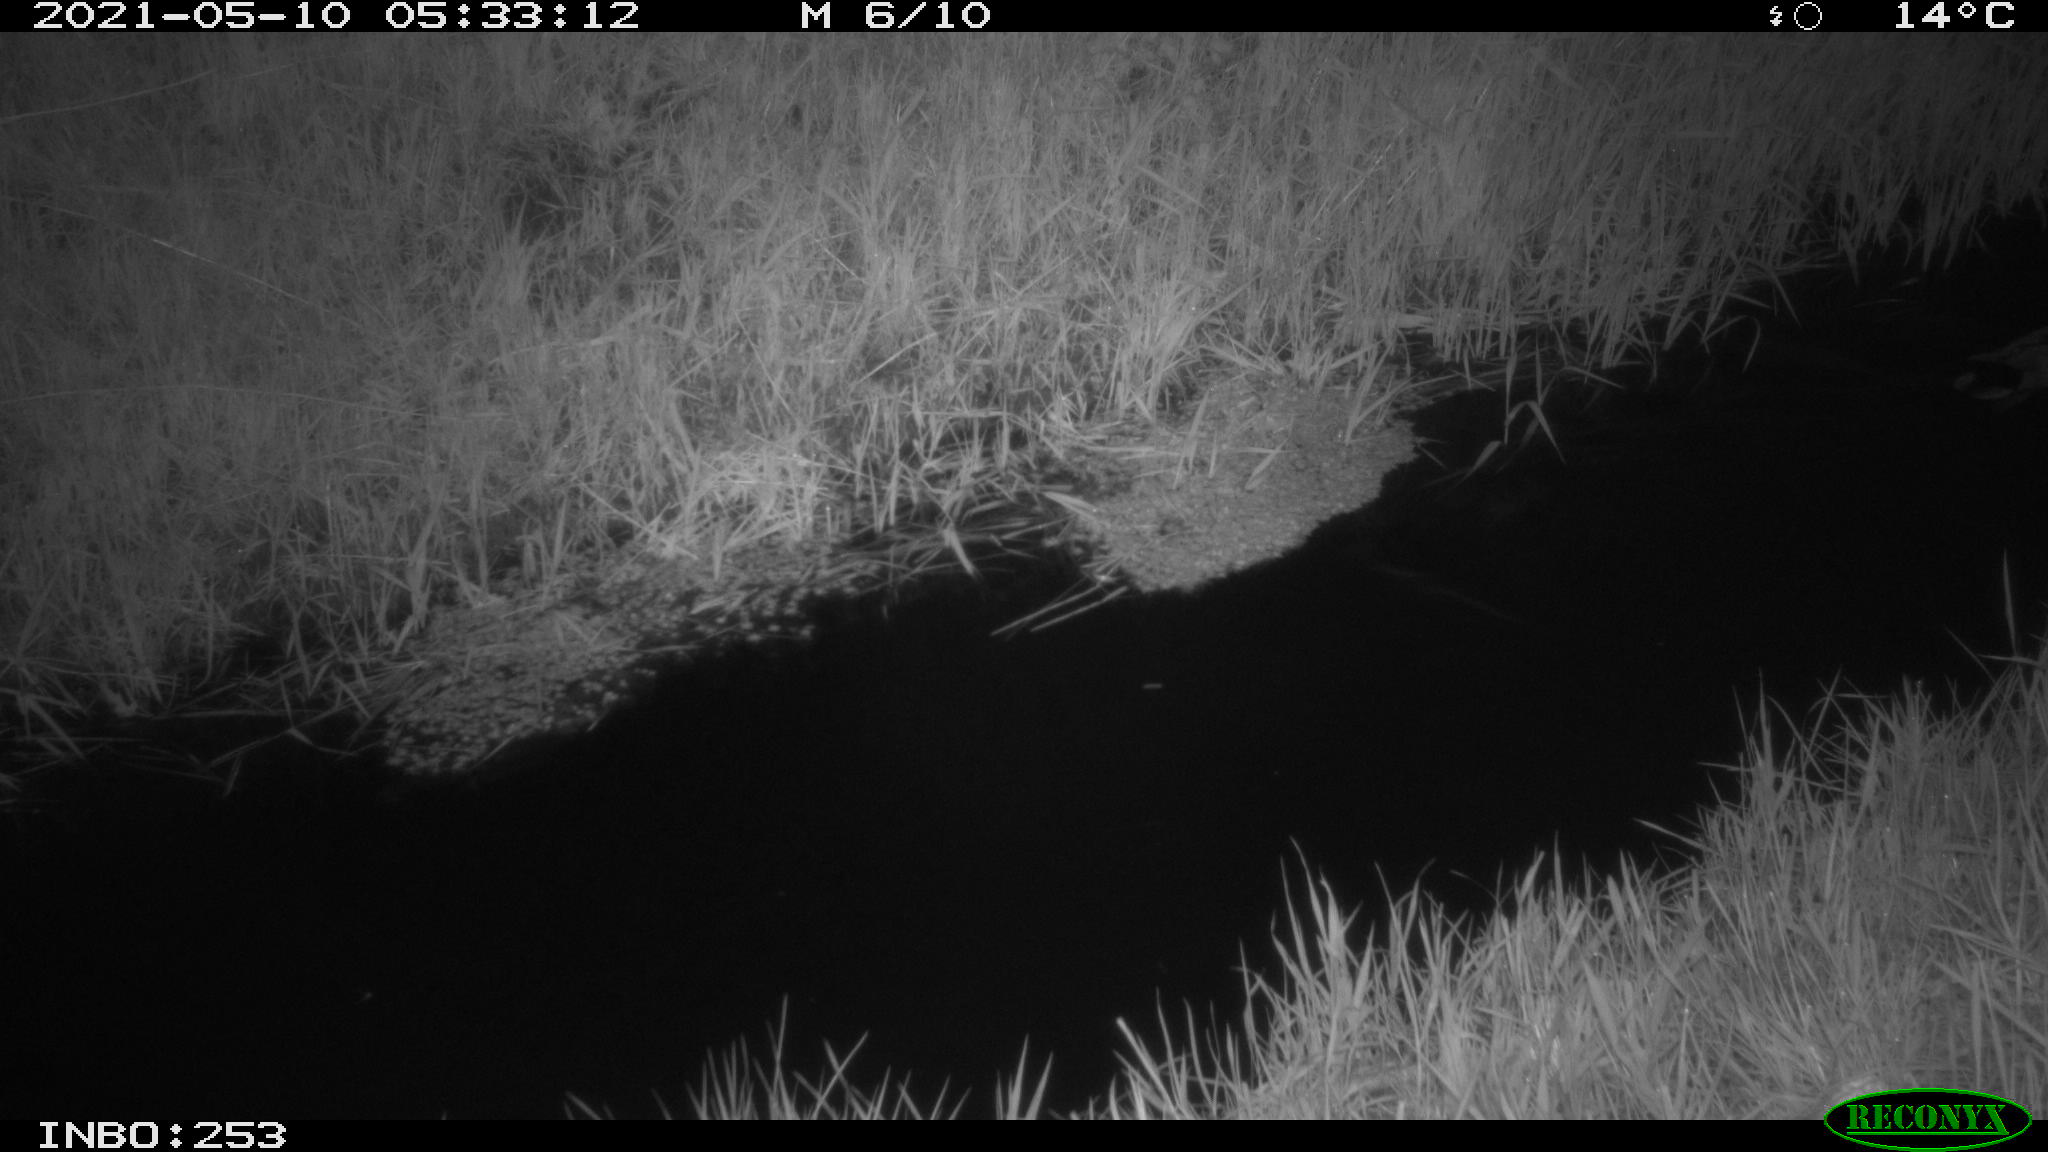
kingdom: Animalia
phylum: Chordata
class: Aves
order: Anseriformes
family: Anatidae
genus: Anas
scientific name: Anas platyrhynchos
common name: Mallard
